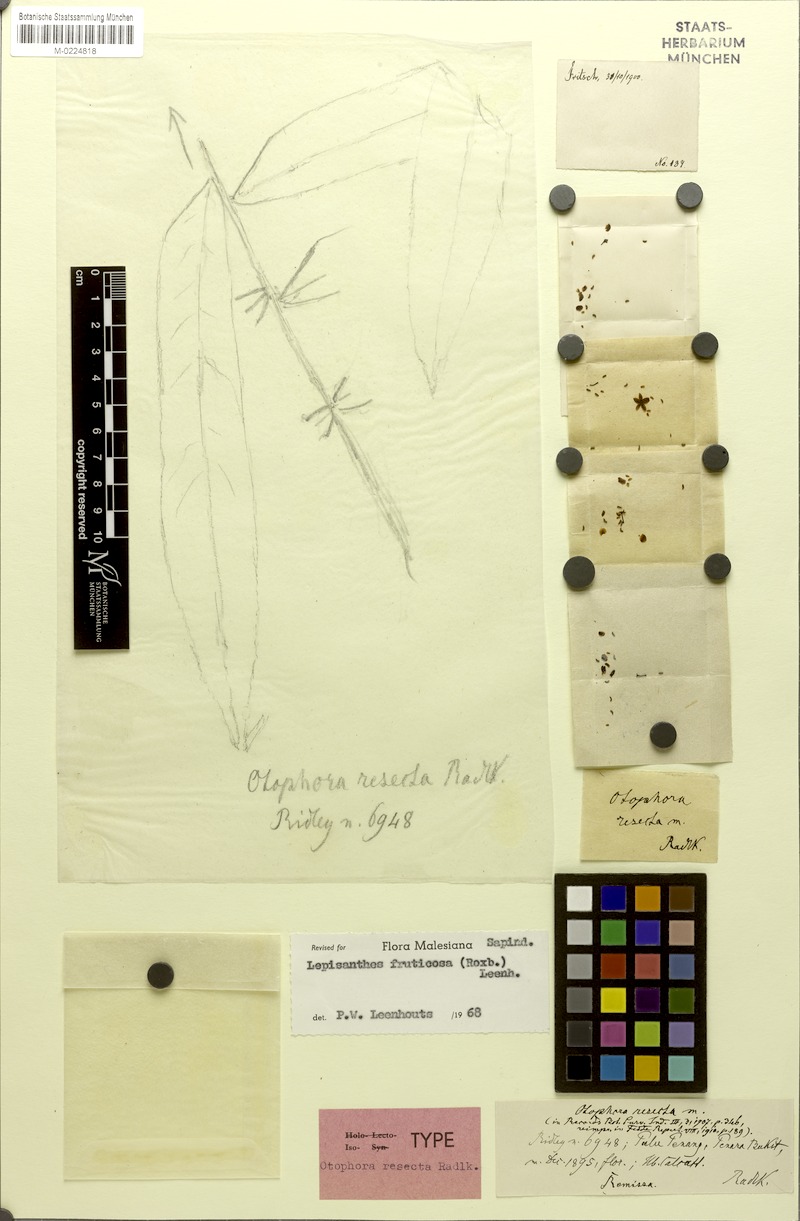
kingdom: Plantae
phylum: Tracheophyta
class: Magnoliopsida
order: Sapindales
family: Sapindaceae
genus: Lepisanthes
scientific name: Lepisanthes fruticosa
